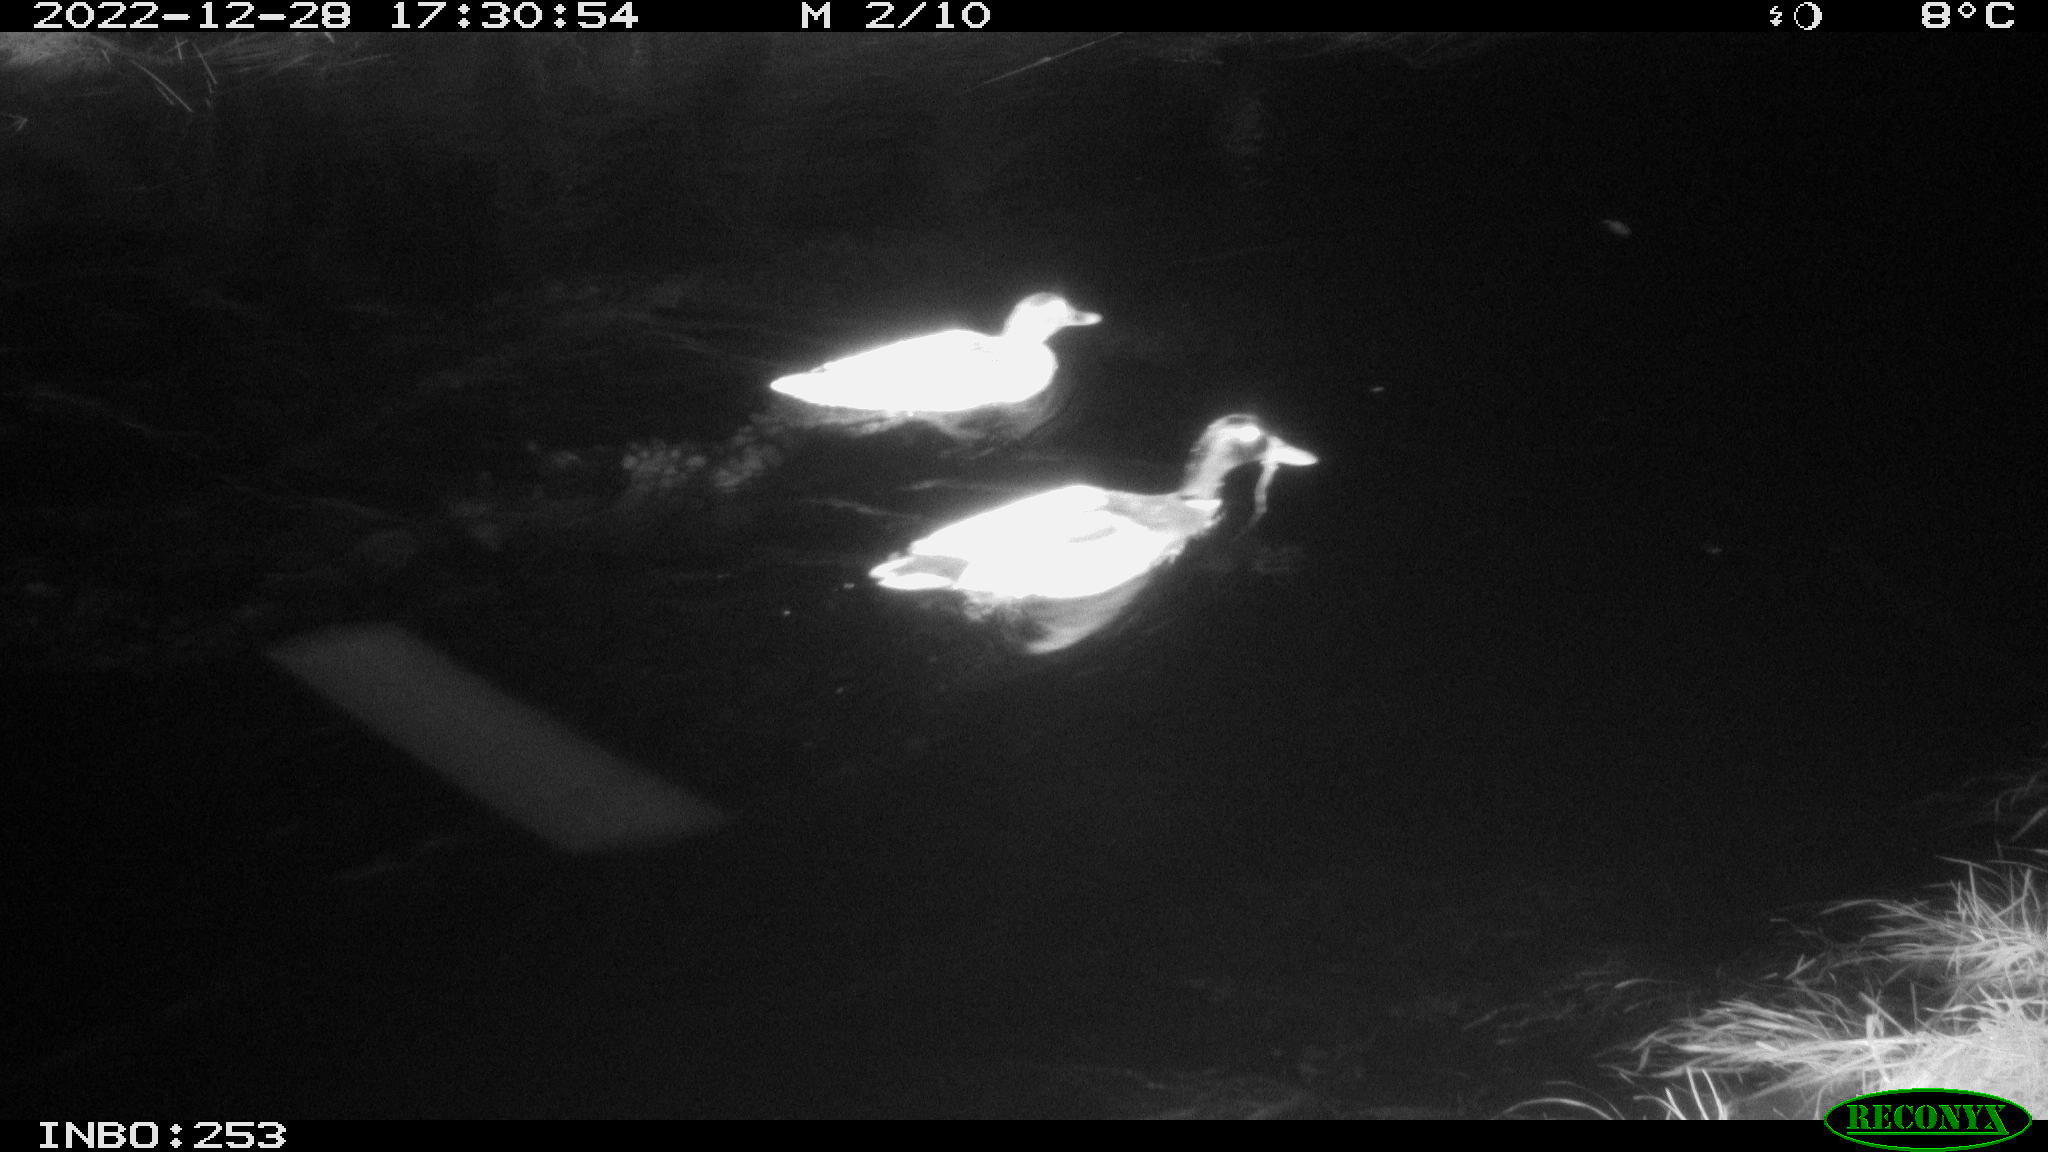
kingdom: Animalia
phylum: Chordata
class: Aves
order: Anseriformes
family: Anatidae
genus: Anas
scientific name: Anas
